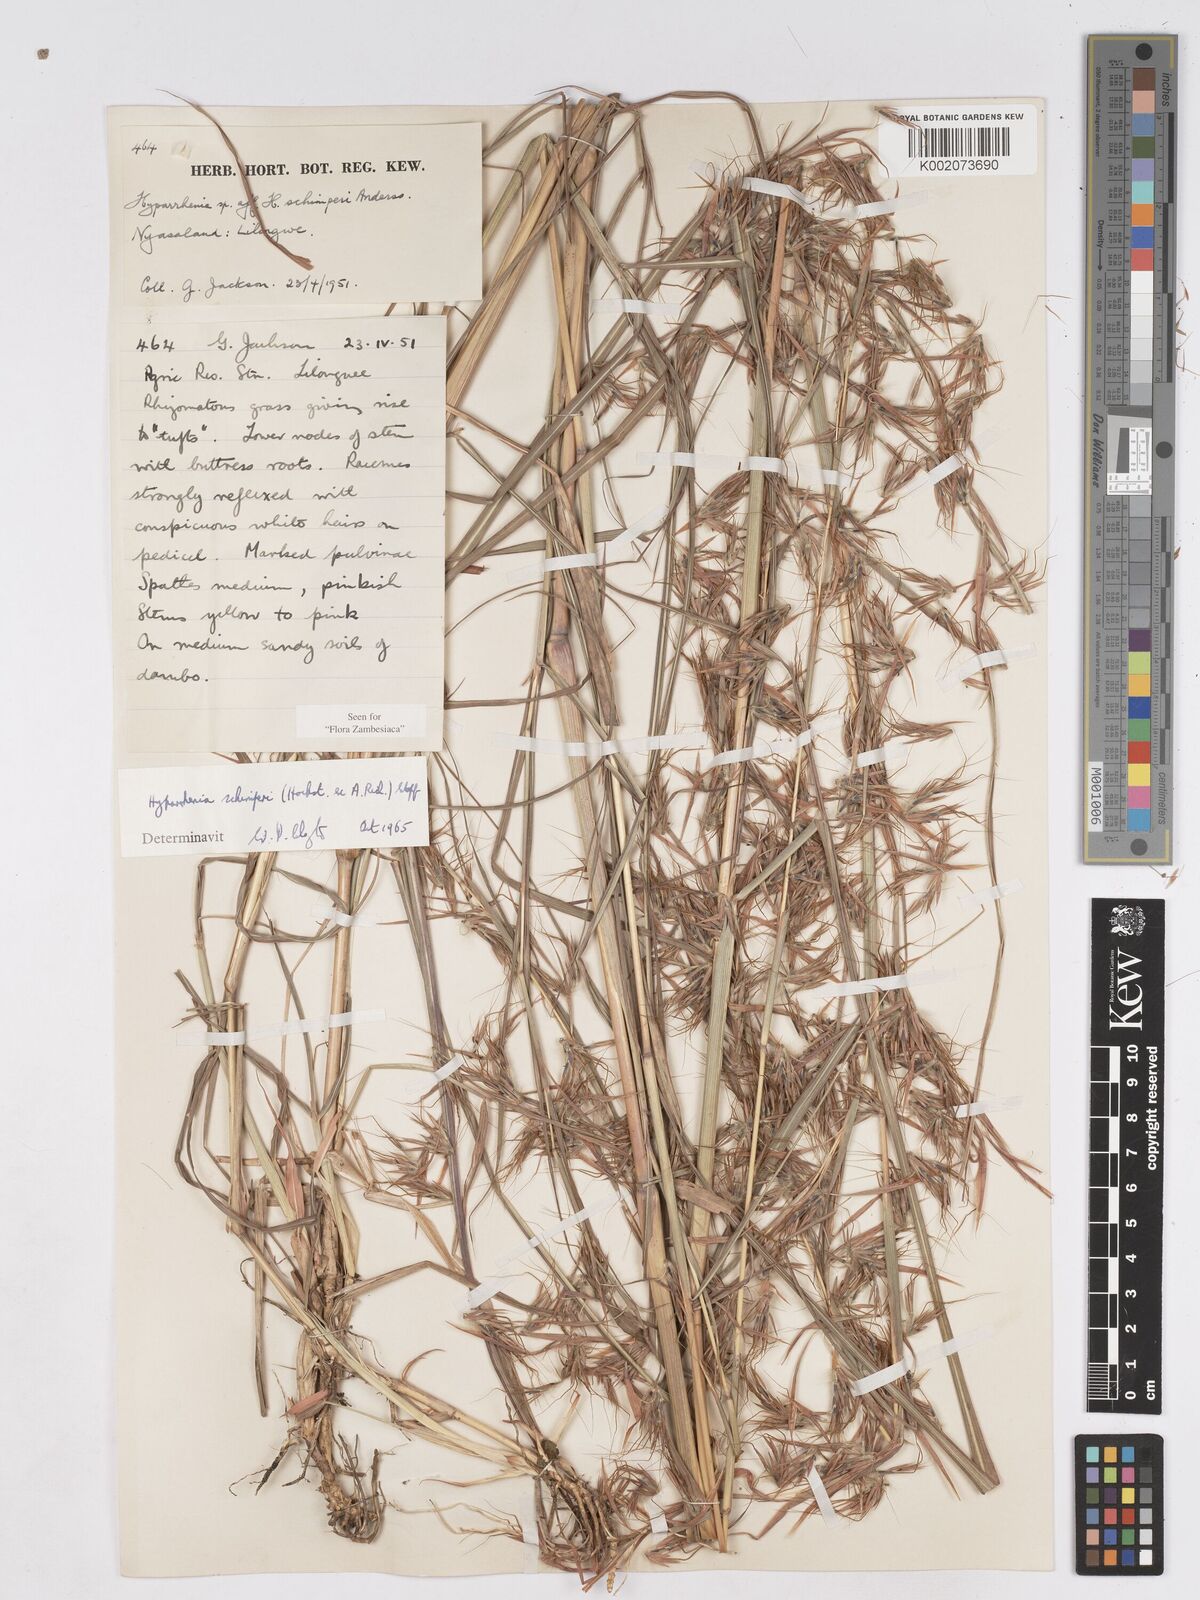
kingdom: Plantae
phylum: Tracheophyta
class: Liliopsida
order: Poales
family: Poaceae
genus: Hyparrhenia
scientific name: Hyparrhenia schimperi
